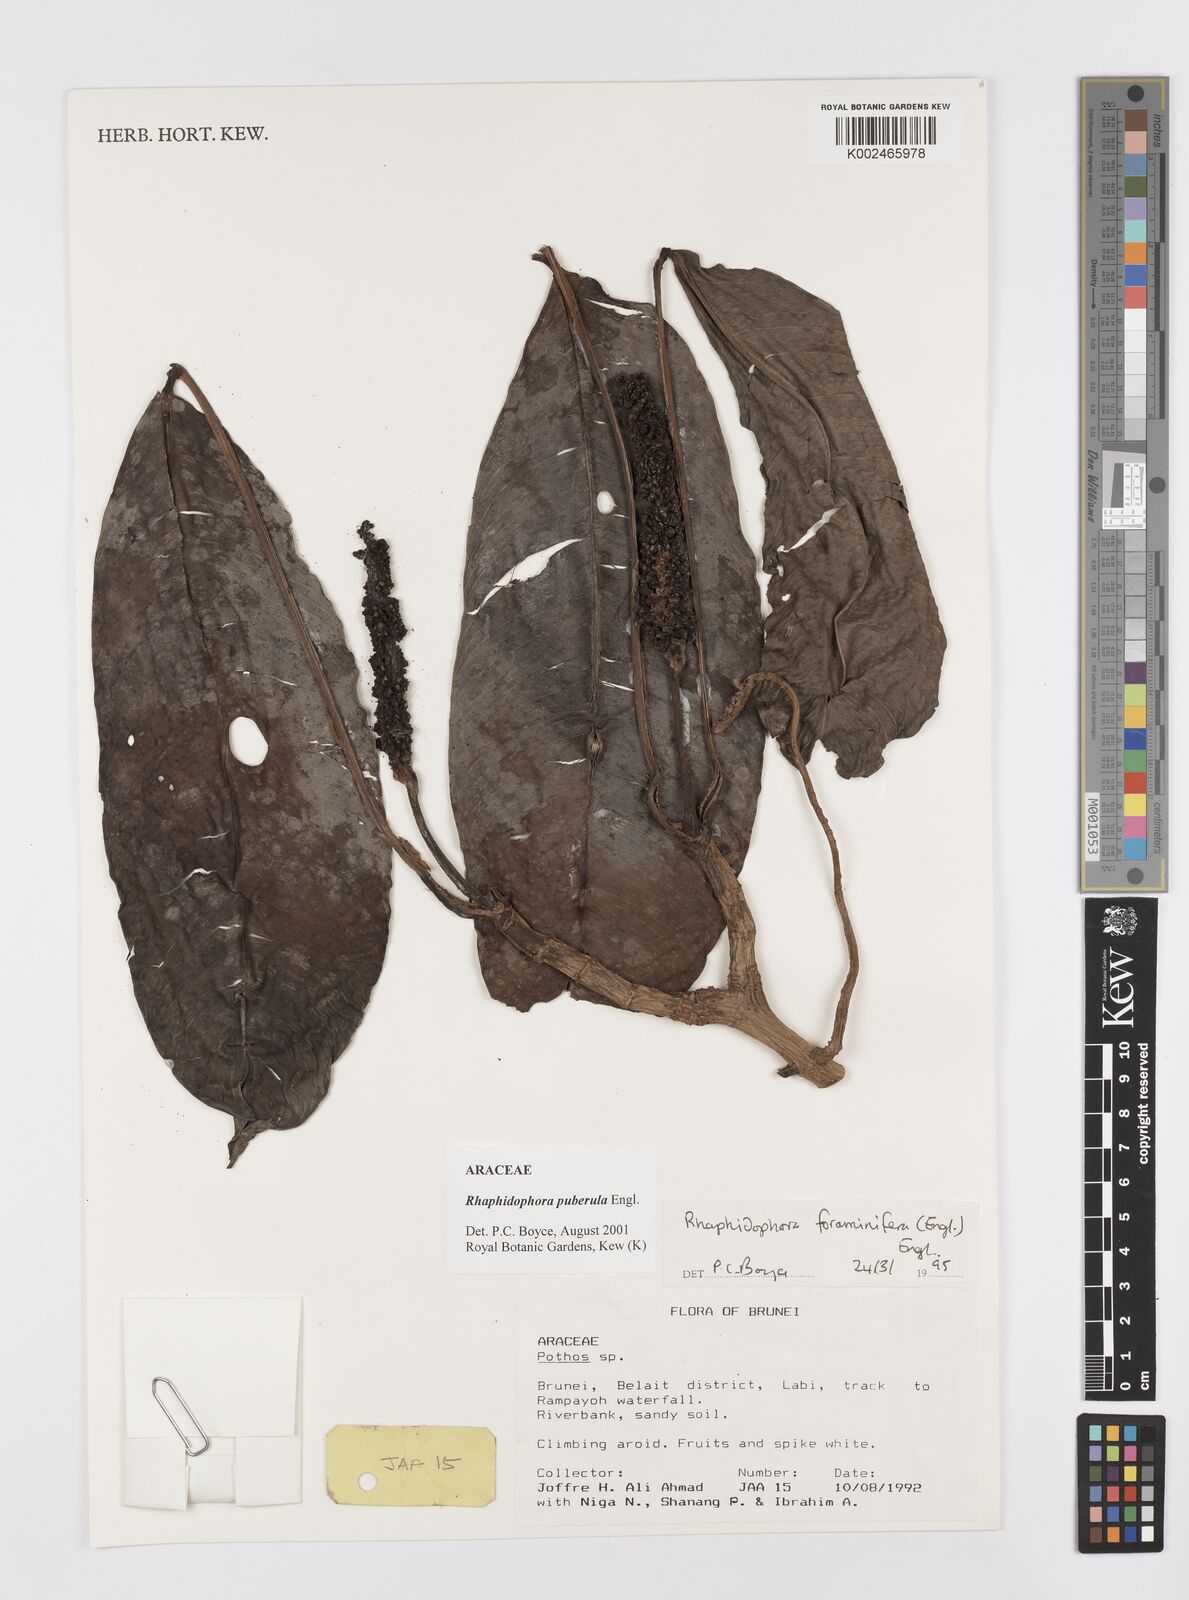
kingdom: Plantae
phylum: Tracheophyta
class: Liliopsida
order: Alismatales
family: Araceae
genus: Rhaphidophora
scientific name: Rhaphidophora puberula
